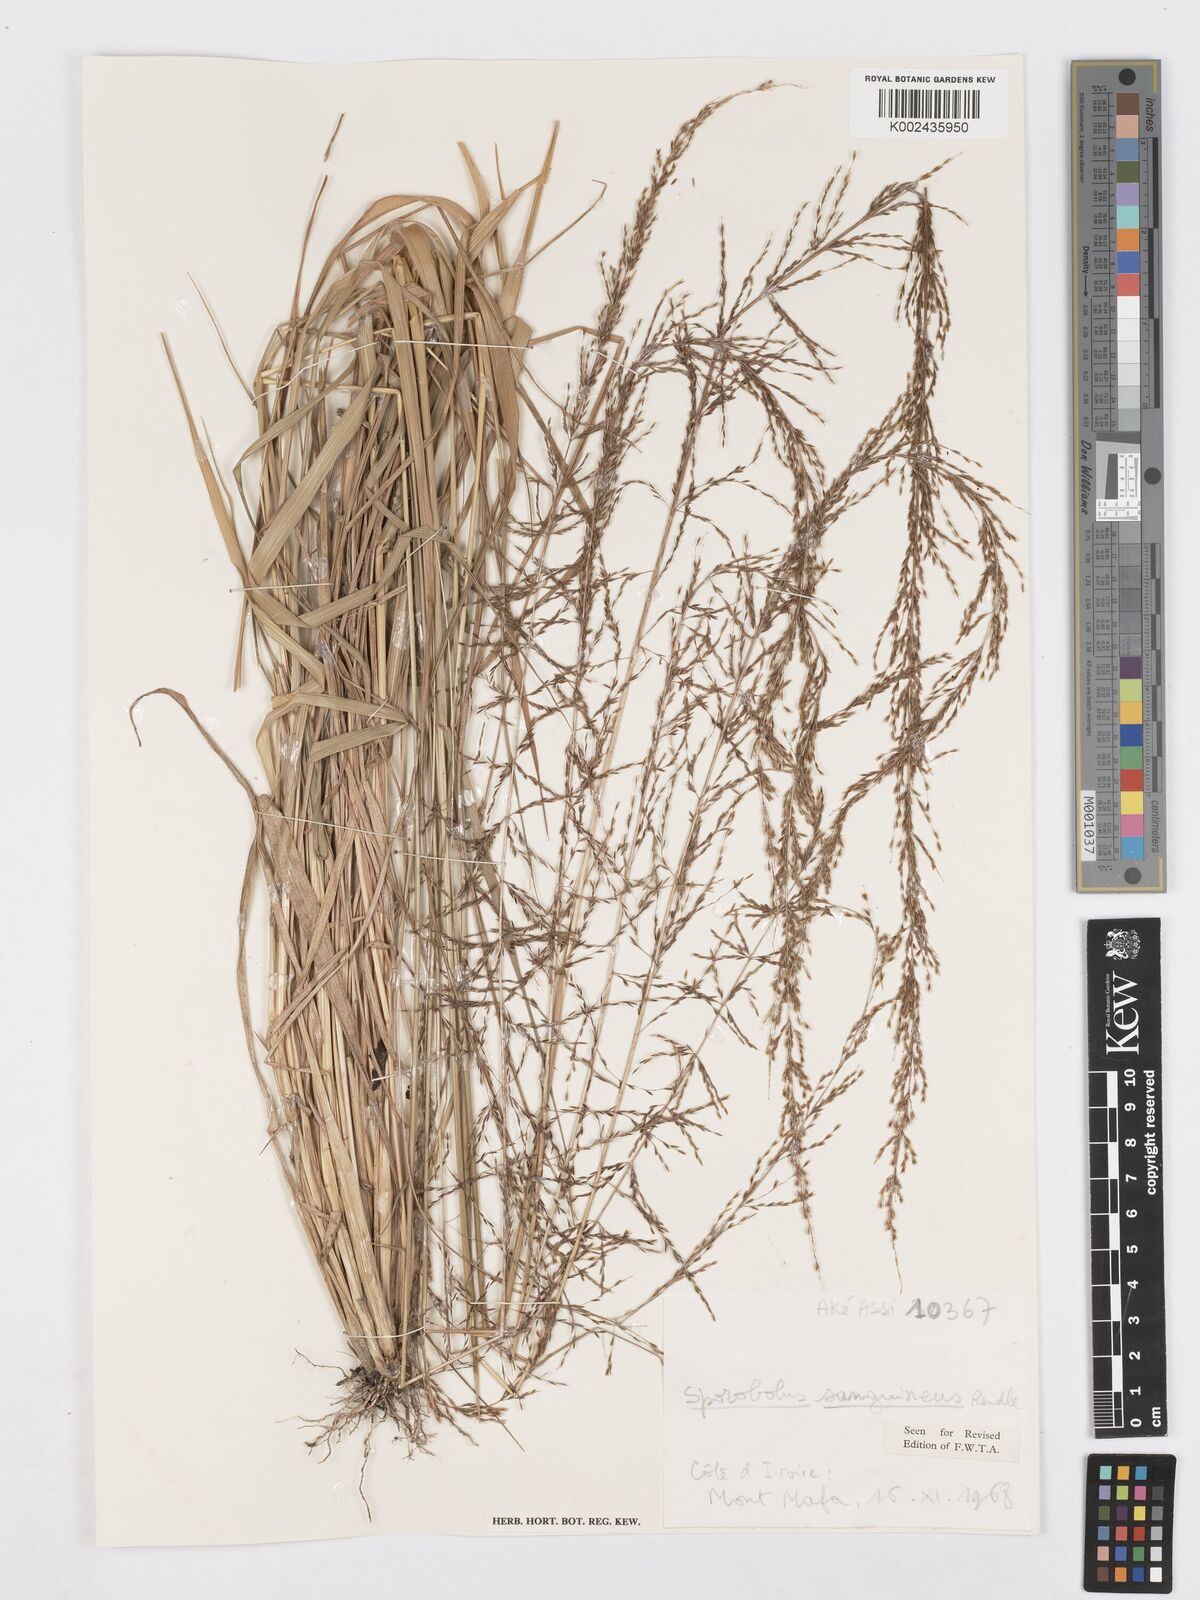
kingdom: Plantae
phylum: Tracheophyta
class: Liliopsida
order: Poales
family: Poaceae
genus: Sporobolus
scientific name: Sporobolus sanguineus
